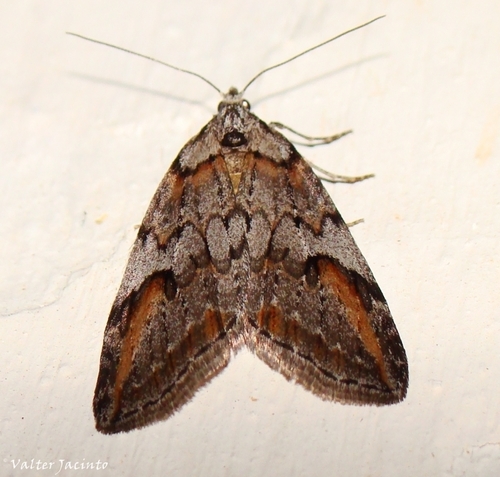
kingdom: Animalia
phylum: Arthropoda
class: Insecta
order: Lepidoptera
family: Geometridae
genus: Chesias
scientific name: Chesias rufata
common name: Broom-tip
